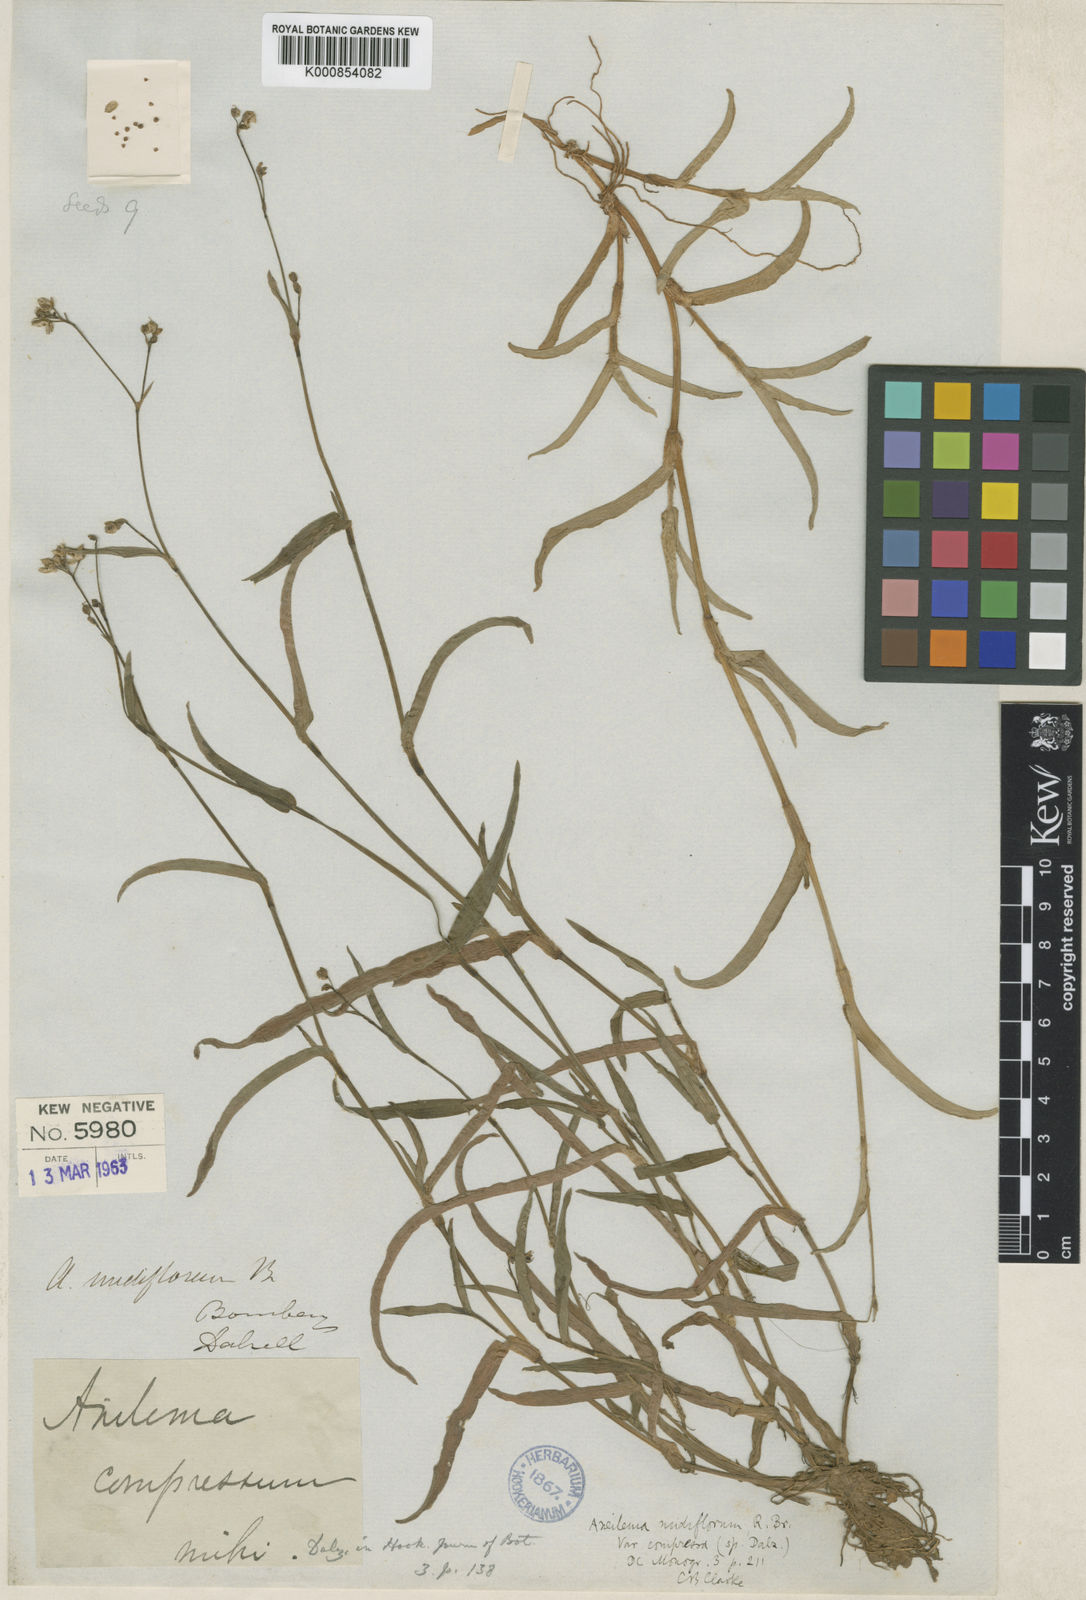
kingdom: Plantae
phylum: Tracheophyta
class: Liliopsida
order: Commelinales
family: Commelinaceae
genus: Murdannia
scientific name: Murdannia nudiflora
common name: Nakedstem dewflower
